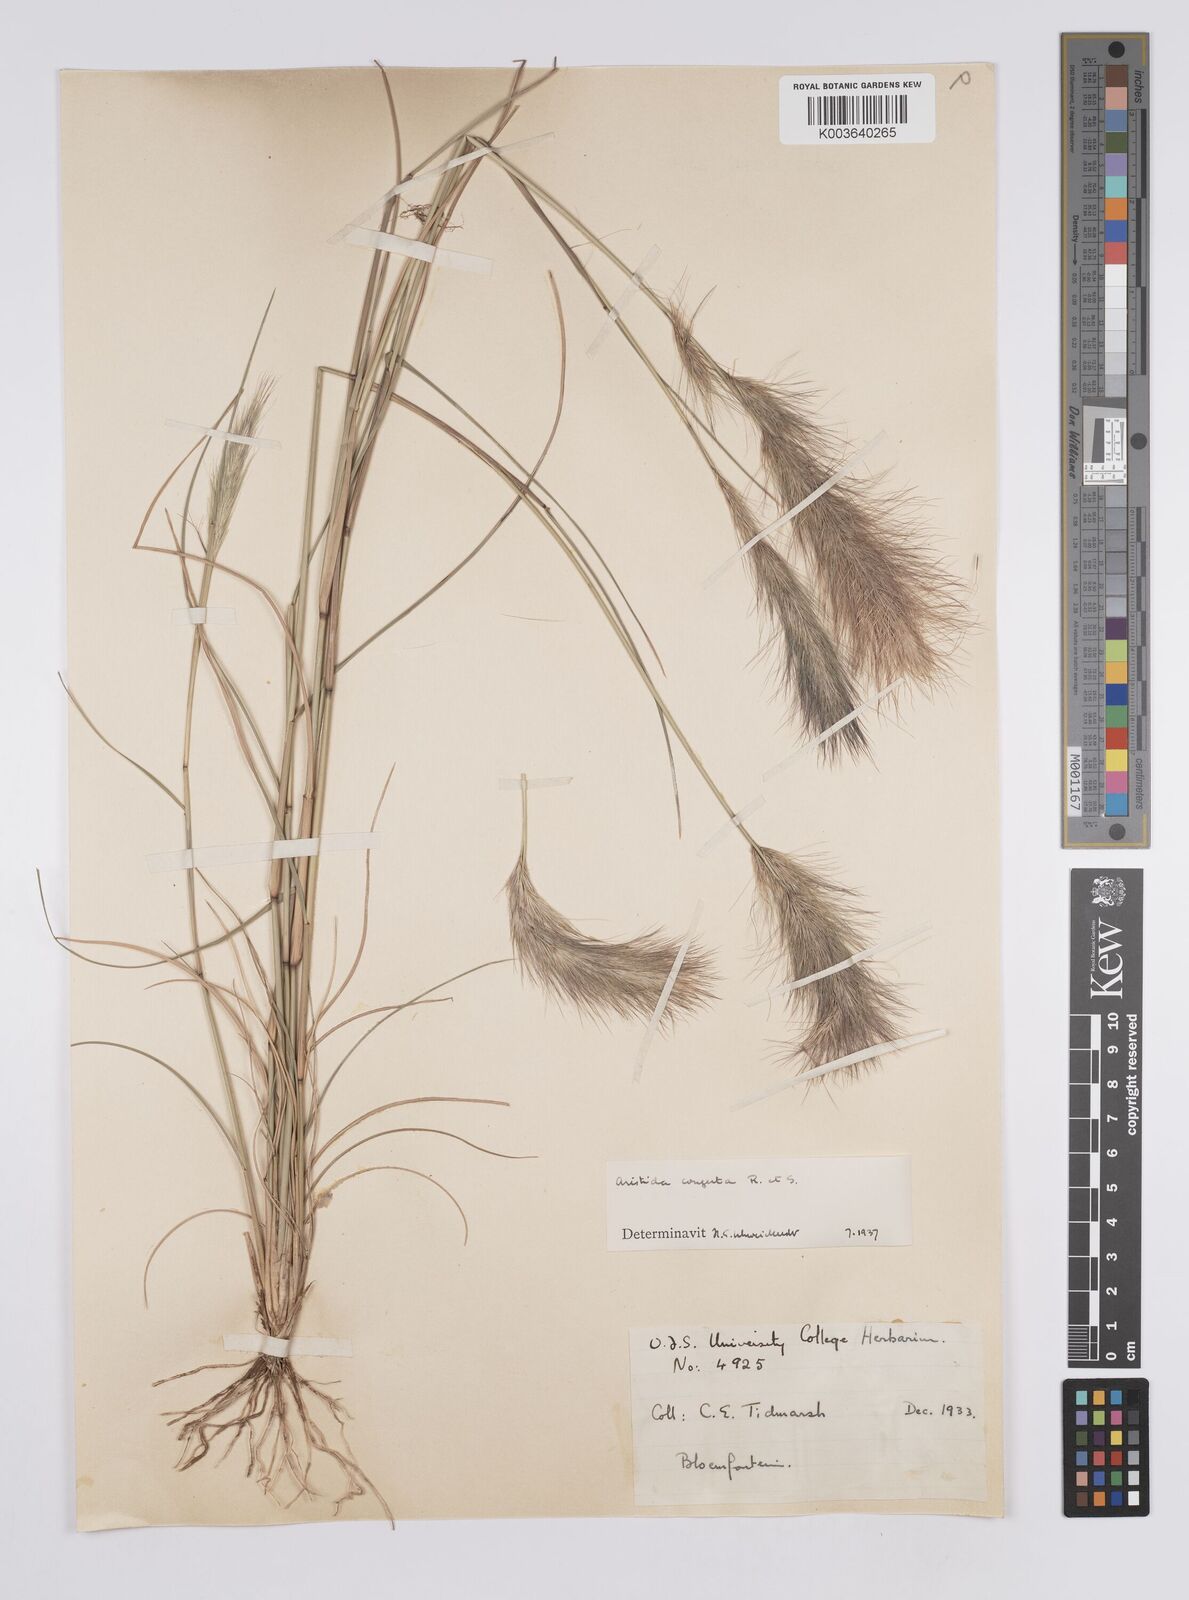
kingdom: Plantae
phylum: Tracheophyta
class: Liliopsida
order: Poales
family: Poaceae
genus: Aristida
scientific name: Aristida congesta
